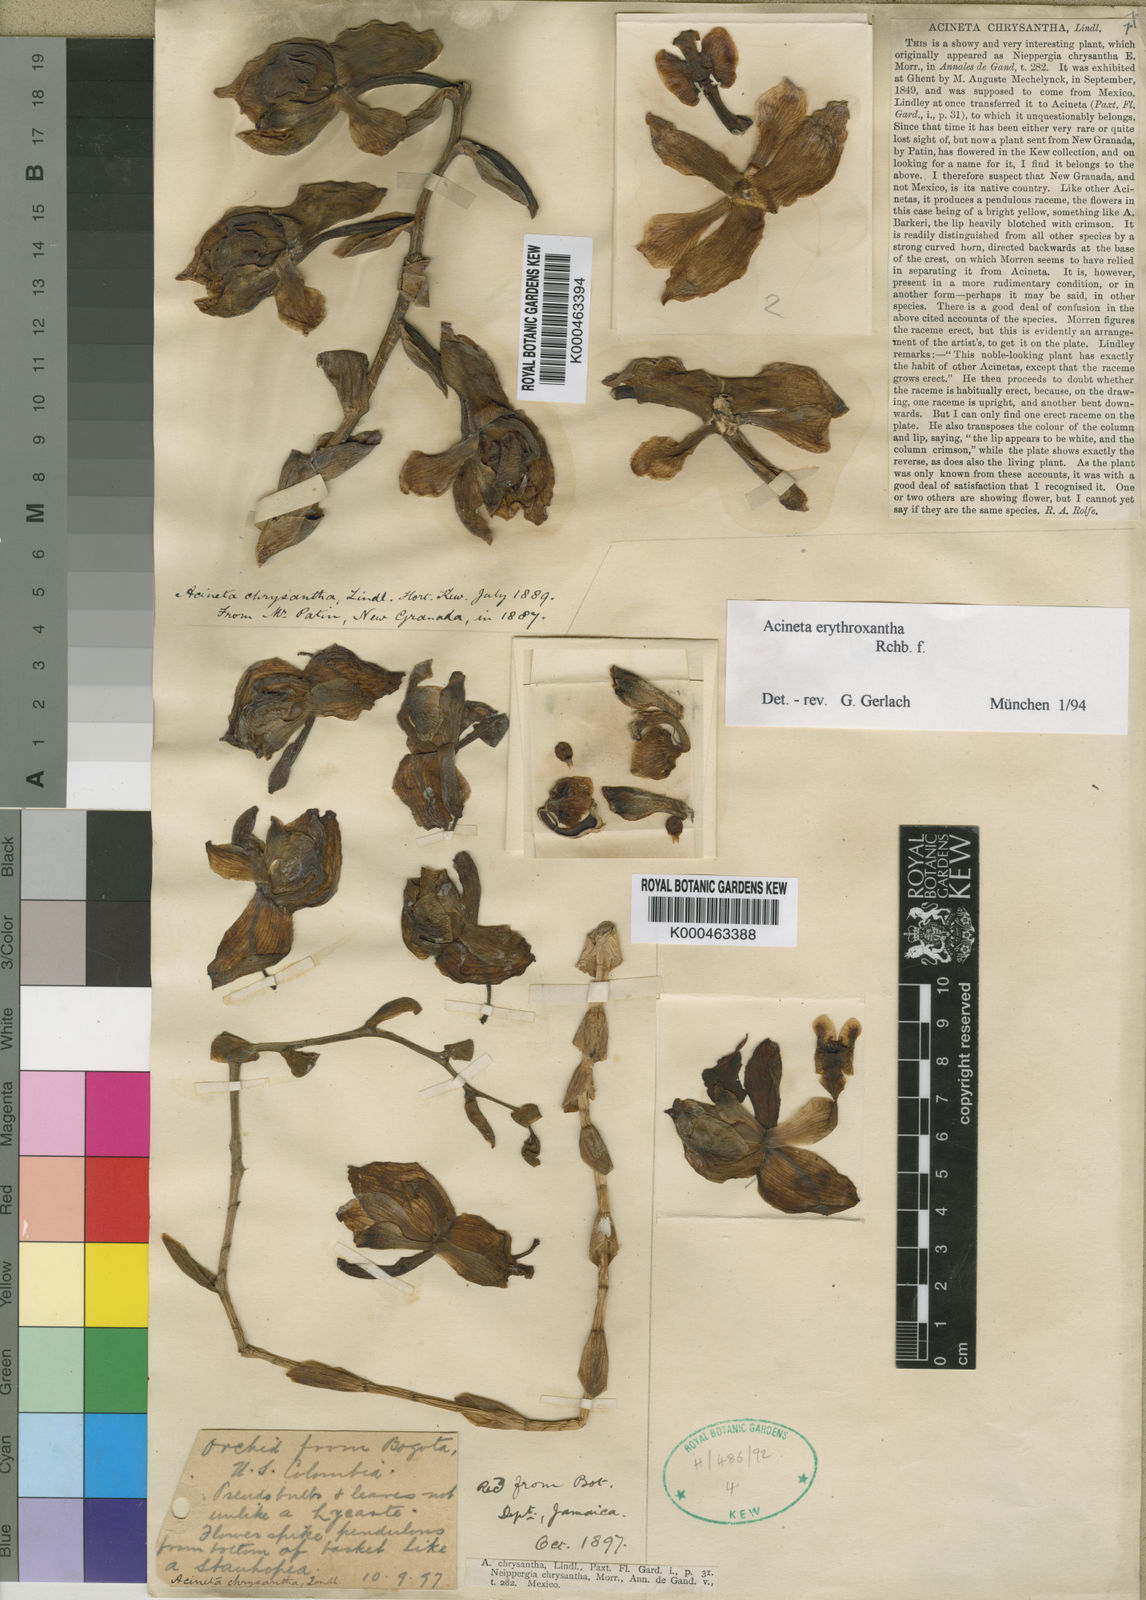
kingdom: Plantae
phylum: Tracheophyta
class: Liliopsida
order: Asparagales
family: Orchidaceae
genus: Acineta
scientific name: Acineta erythroxantha
